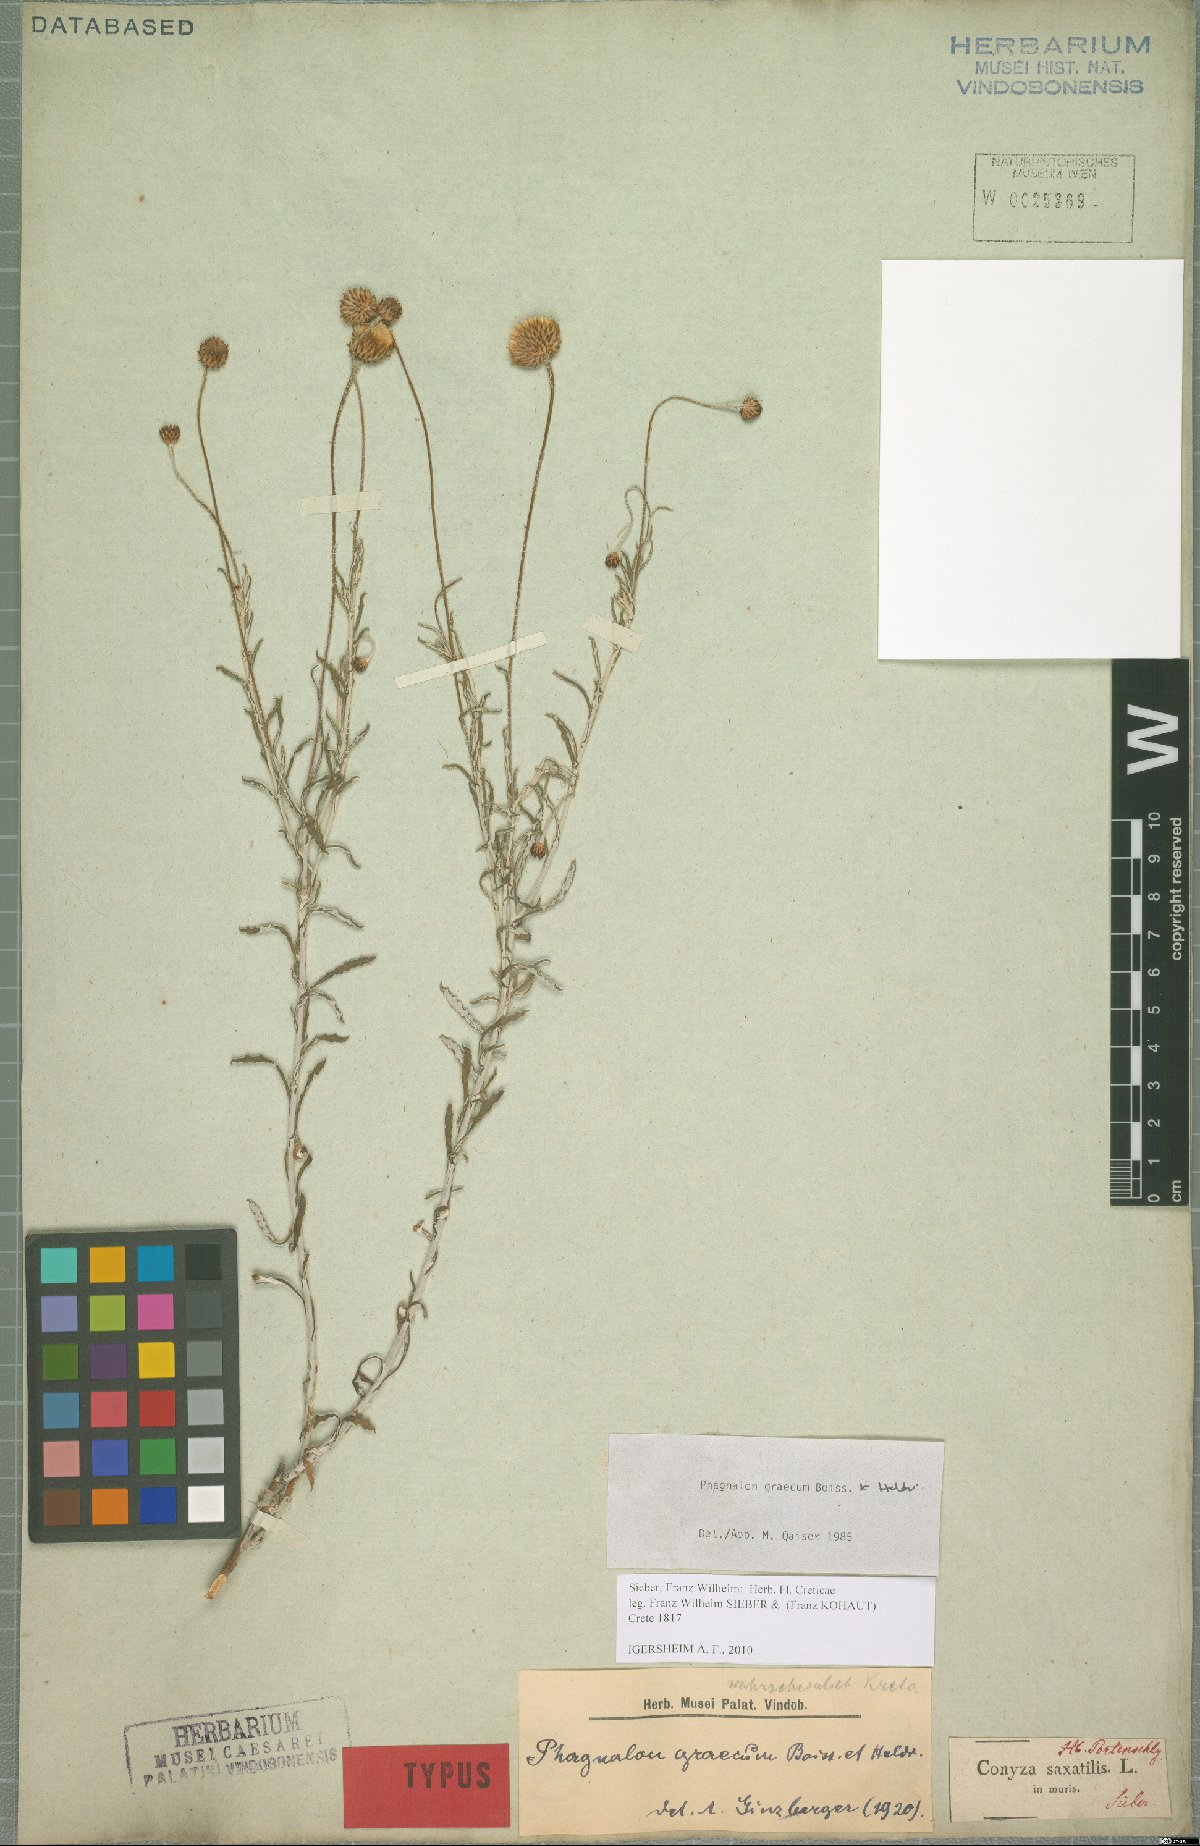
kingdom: Plantae
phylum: Tracheophyta
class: Magnoliopsida
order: Asterales
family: Asteraceae
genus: Phagnalon
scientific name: Phagnalon graecum
